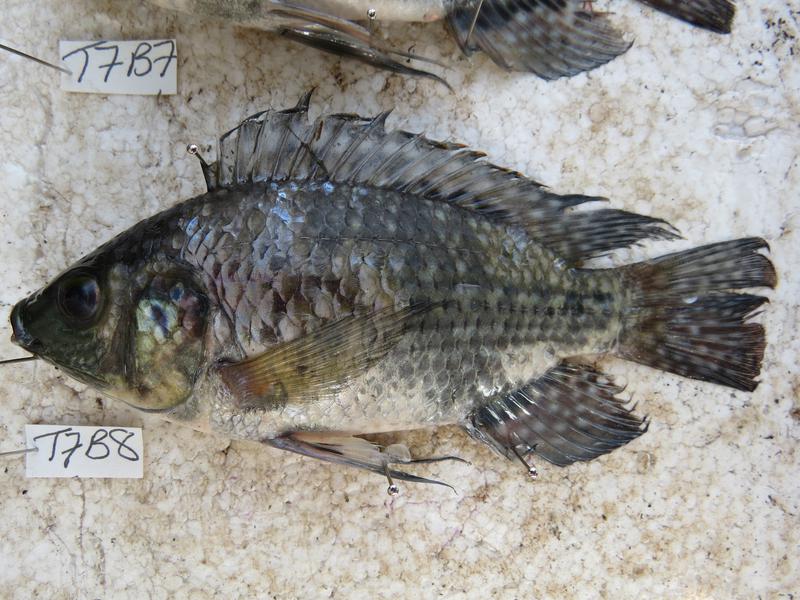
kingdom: Animalia
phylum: Chordata
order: Perciformes
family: Cichlidae
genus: Oreochromis
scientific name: Oreochromis leucostictus
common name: Blue spotted tilapia
